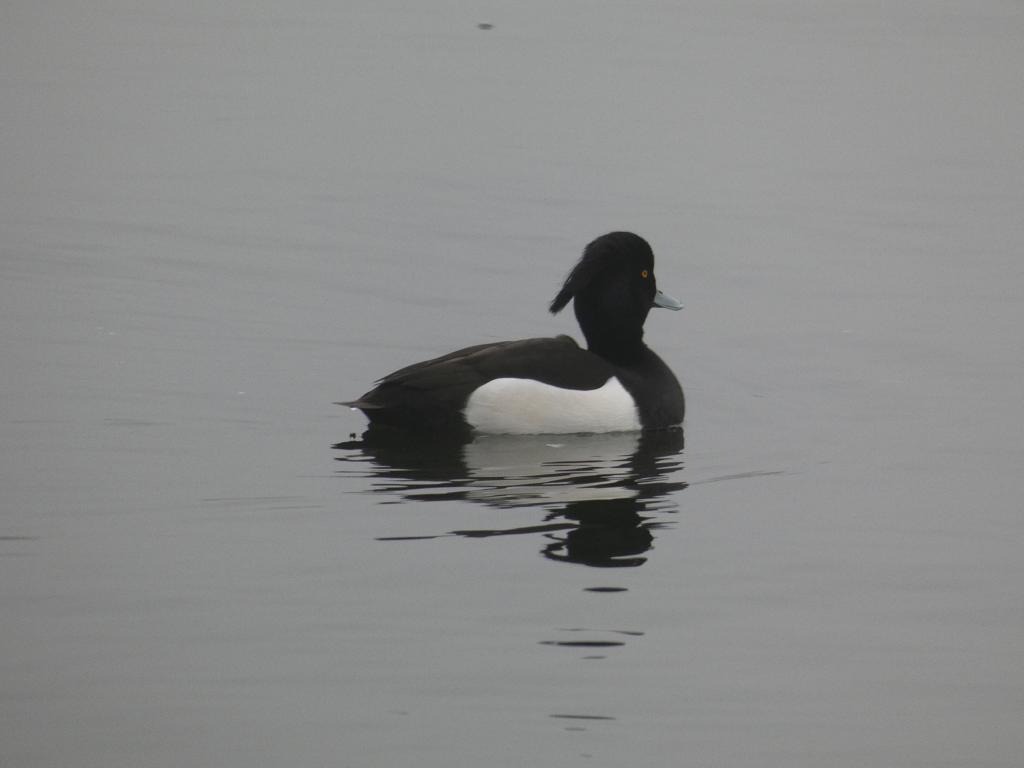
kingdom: Animalia
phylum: Chordata
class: Aves
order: Anseriformes
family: Anatidae
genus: Aythya
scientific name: Aythya fuligula
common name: Troldand
